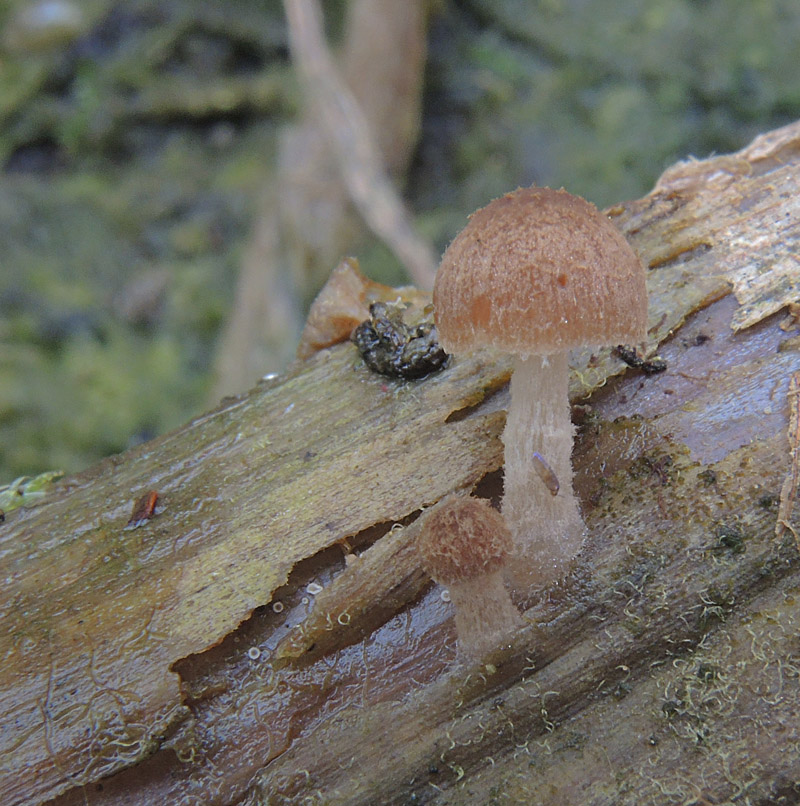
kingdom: Fungi
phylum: Basidiomycota
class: Agaricomycetes
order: Agaricales
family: Psathyrellaceae
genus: Candolleomyces
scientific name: Candolleomyces typhae
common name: dunhammer-mørkhat
